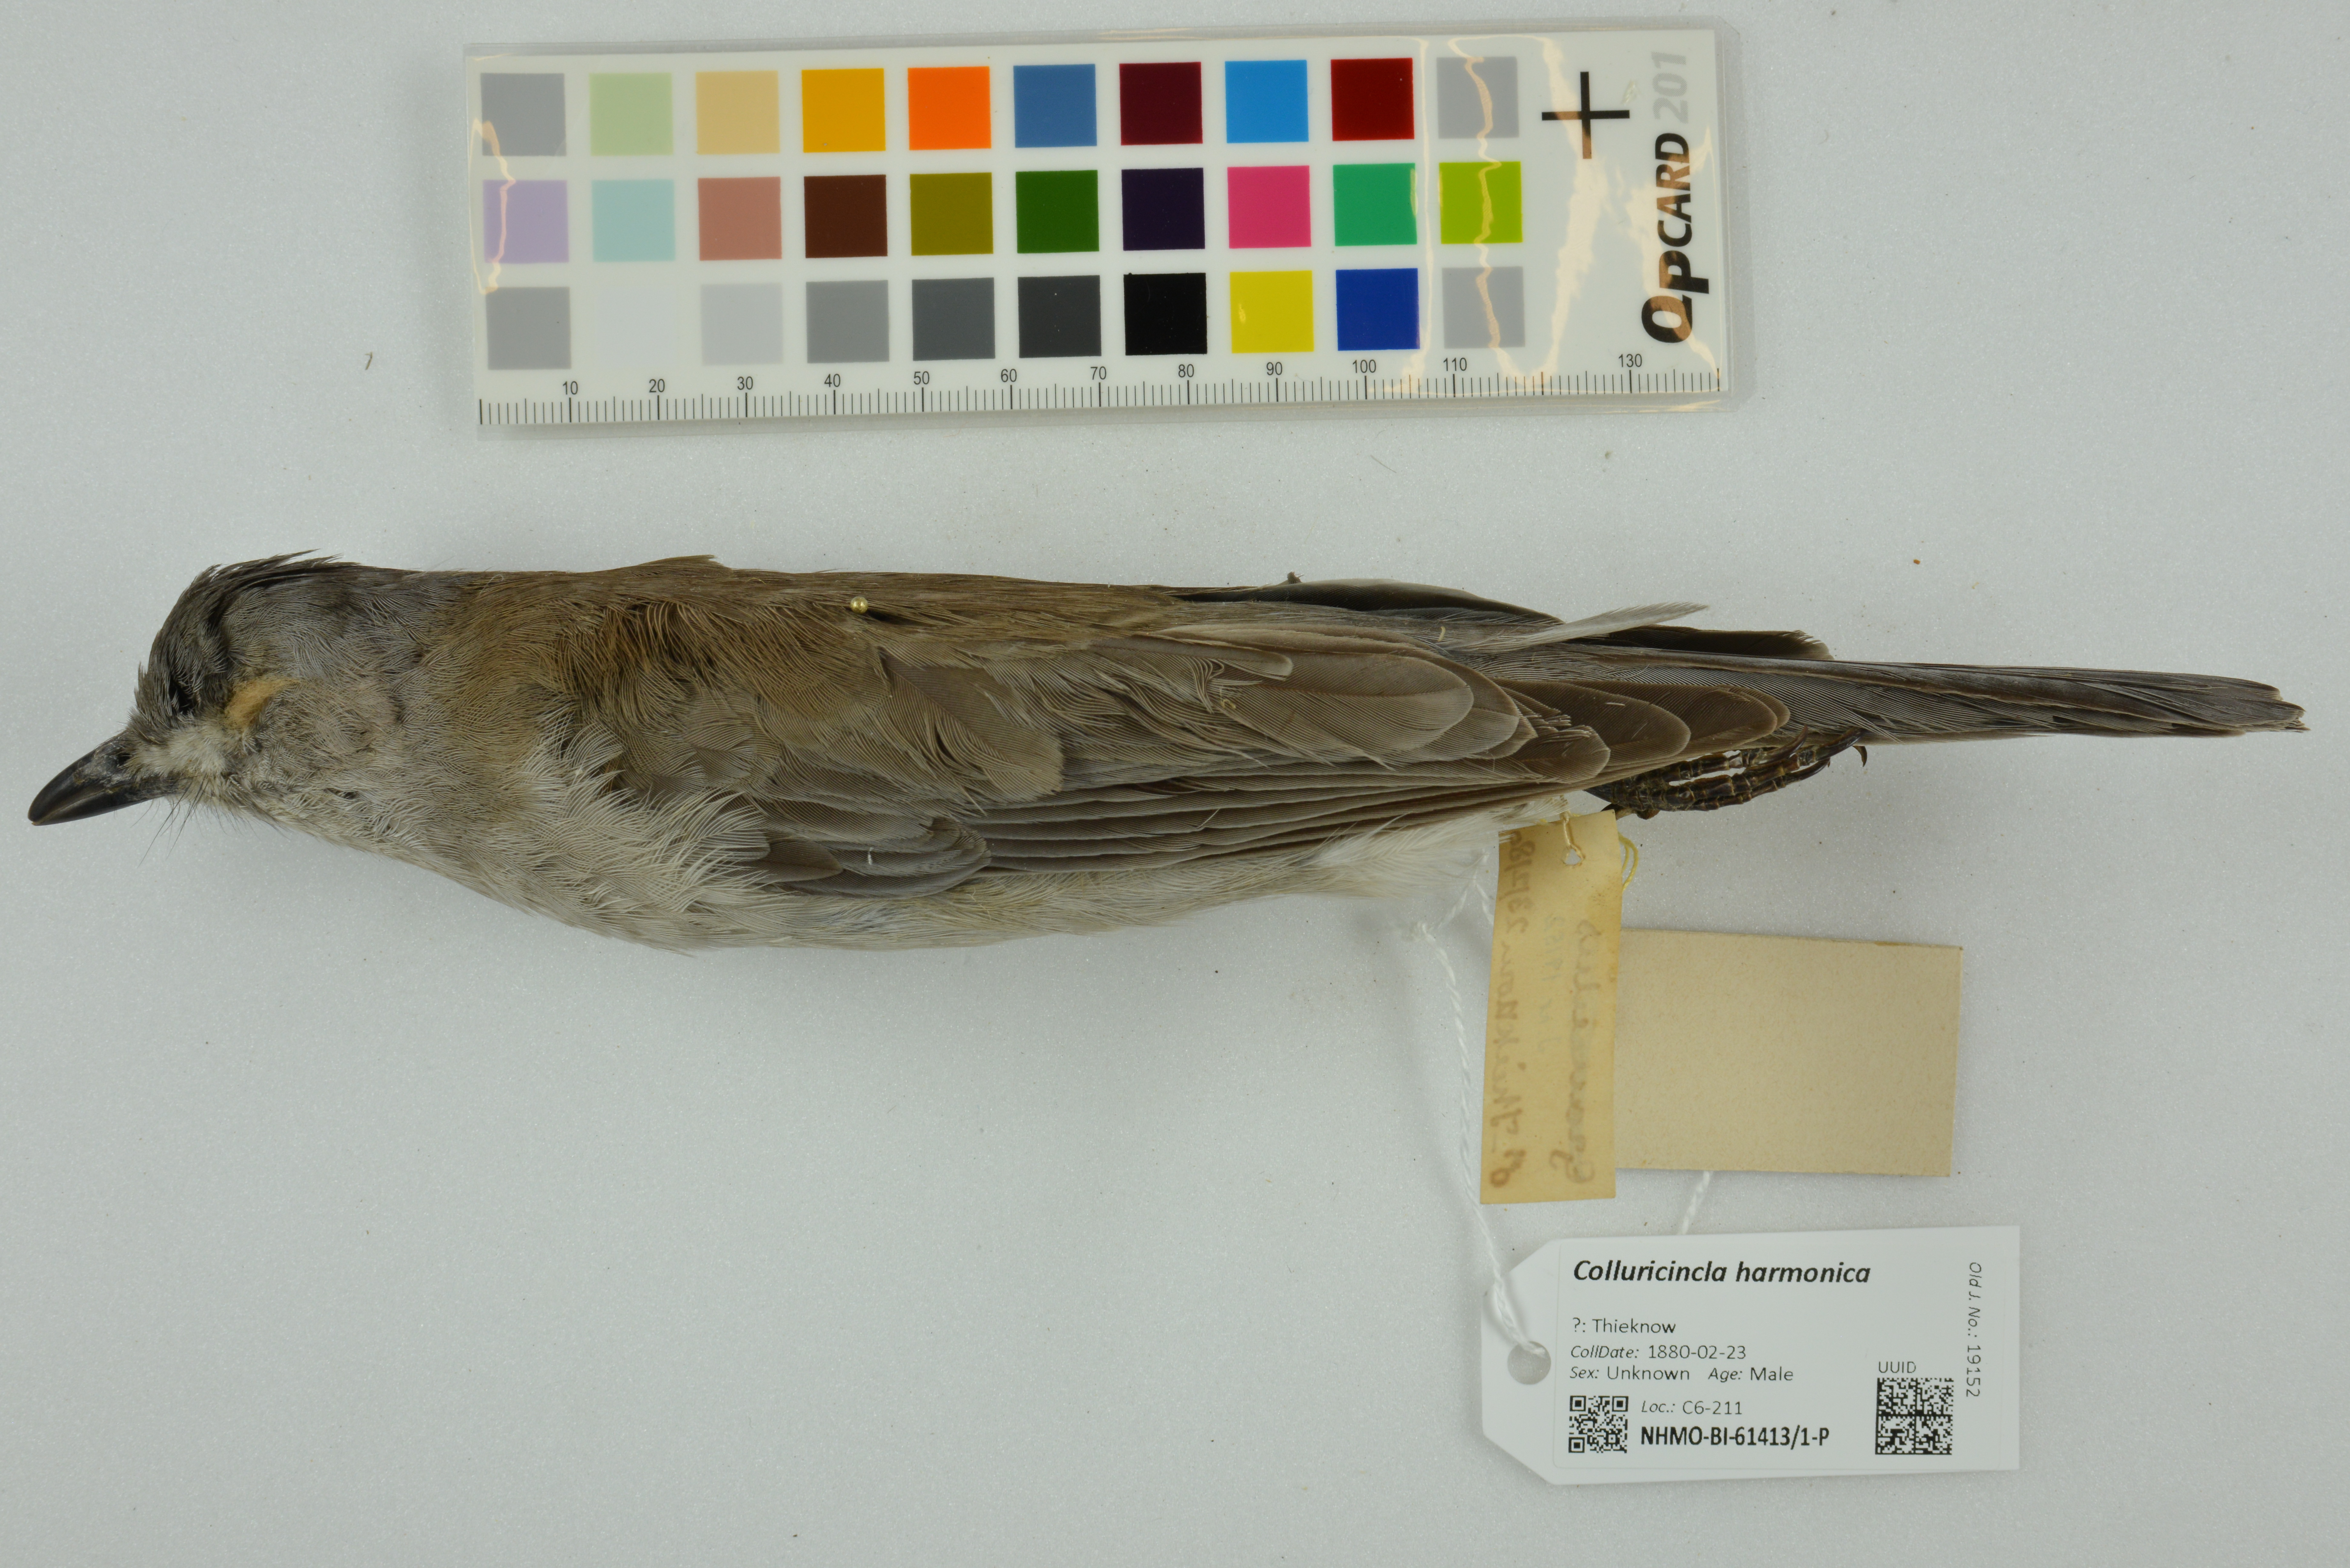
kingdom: Animalia
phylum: Chordata
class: Aves
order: Passeriformes
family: Pachycephalidae
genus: Colluricincla
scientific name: Colluricincla harmonica
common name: Grey shrikethrush
